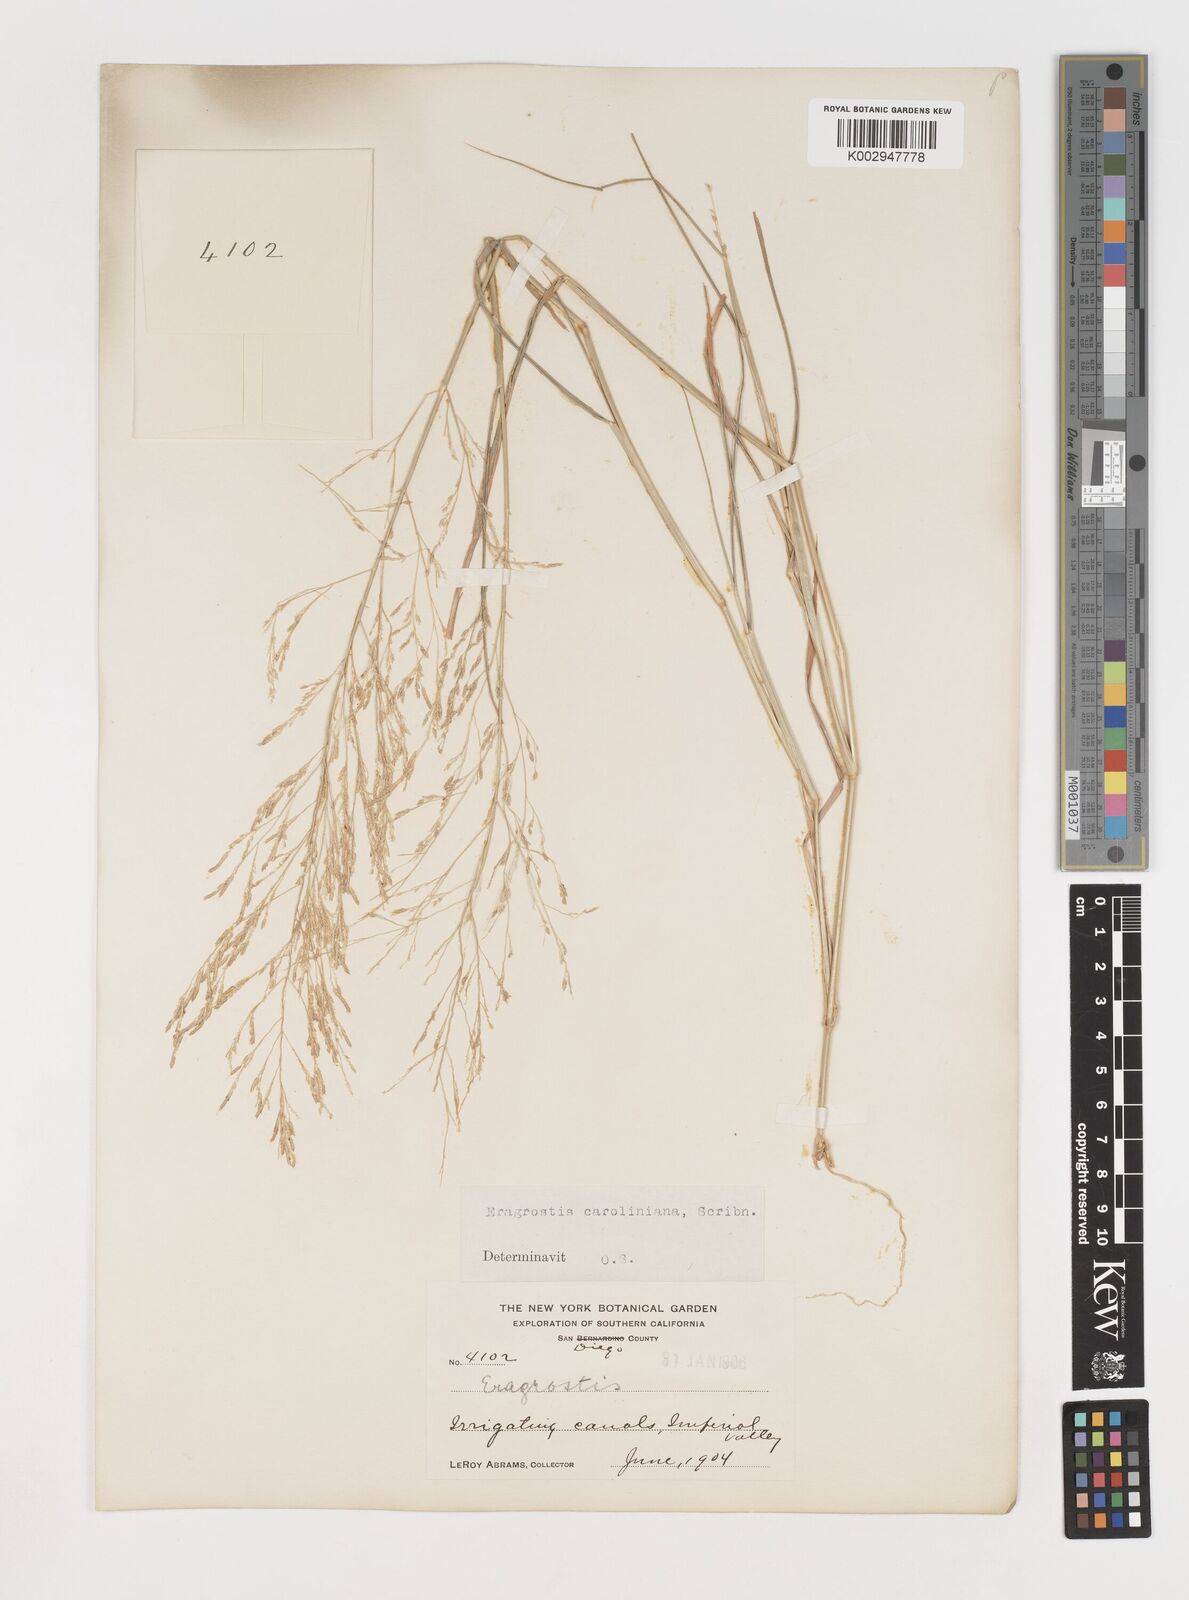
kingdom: Plantae
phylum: Tracheophyta
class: Liliopsida
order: Poales
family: Poaceae
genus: Eragrostis
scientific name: Eragrostis pectinacea
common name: Tufted lovegrass
